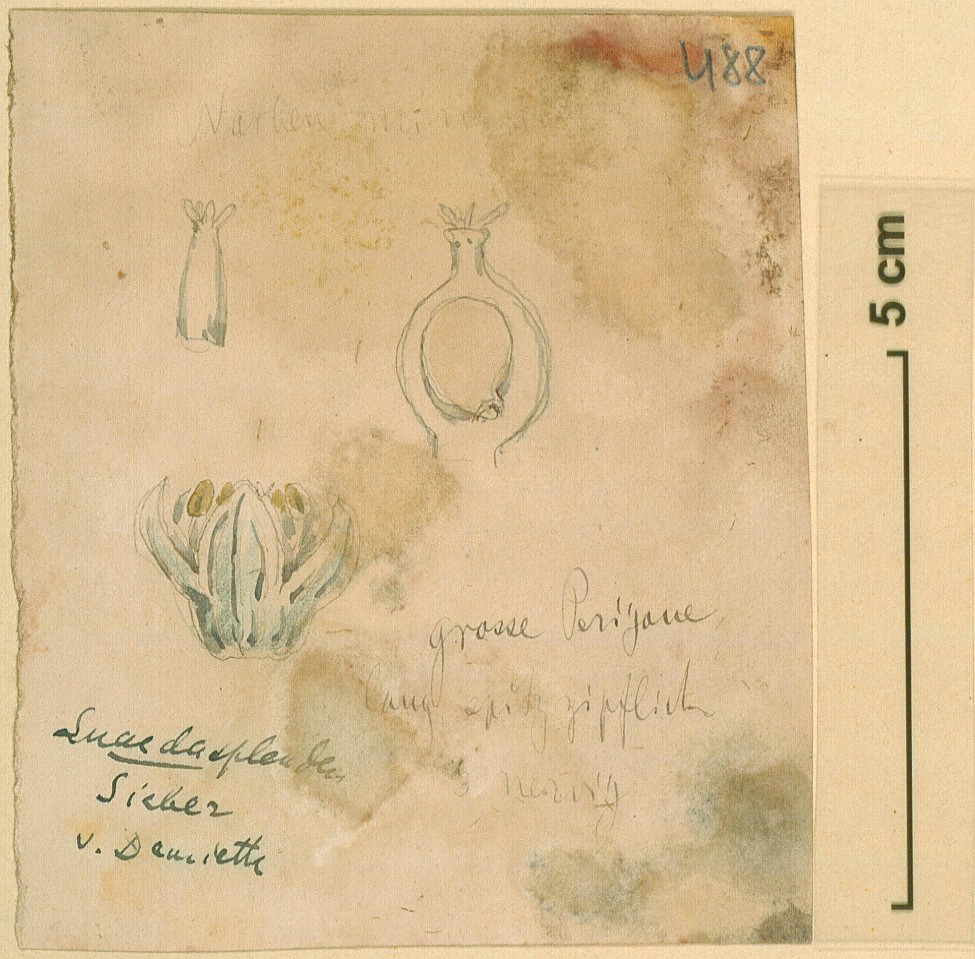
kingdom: Plantae
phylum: Tracheophyta
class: Magnoliopsida
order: Caryophyllales
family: Amaranthaceae
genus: Suaeda
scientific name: Suaeda splendens
